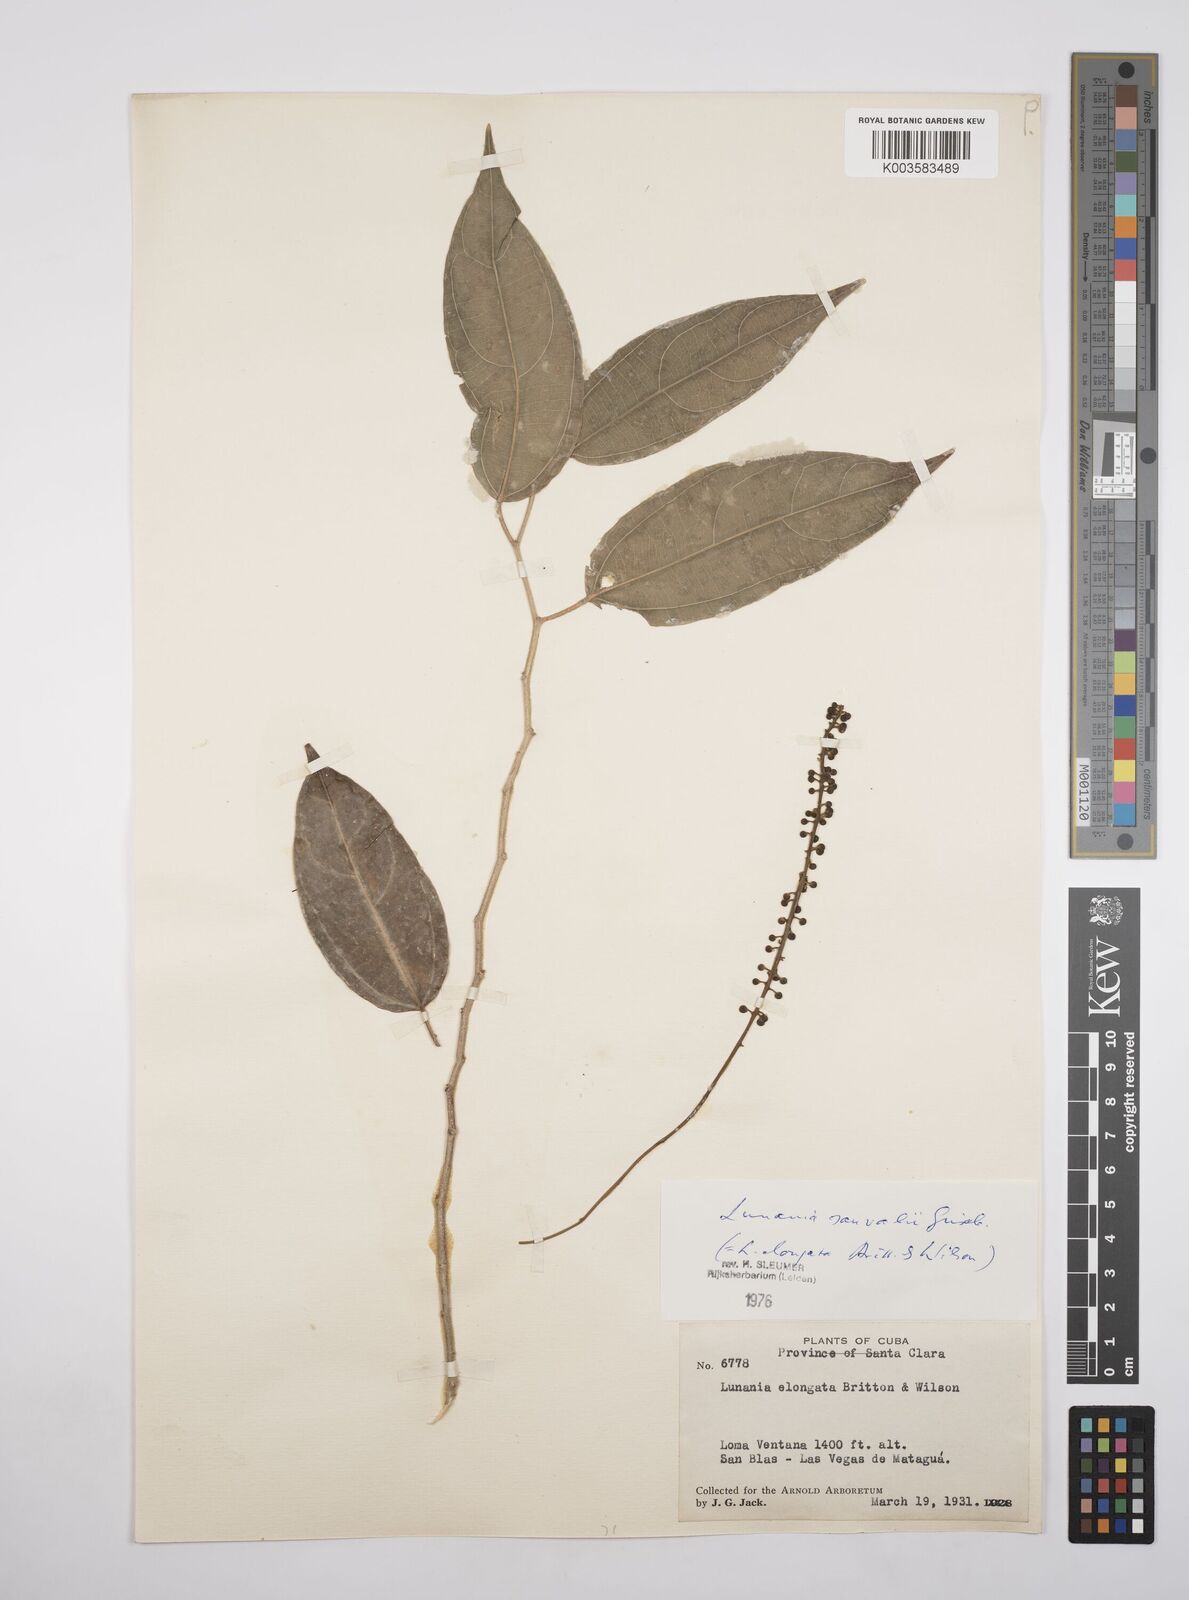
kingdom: Plantae
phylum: Tracheophyta
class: Magnoliopsida
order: Malpighiales
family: Salicaceae
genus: Lunania
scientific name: Lunania sauvallei
